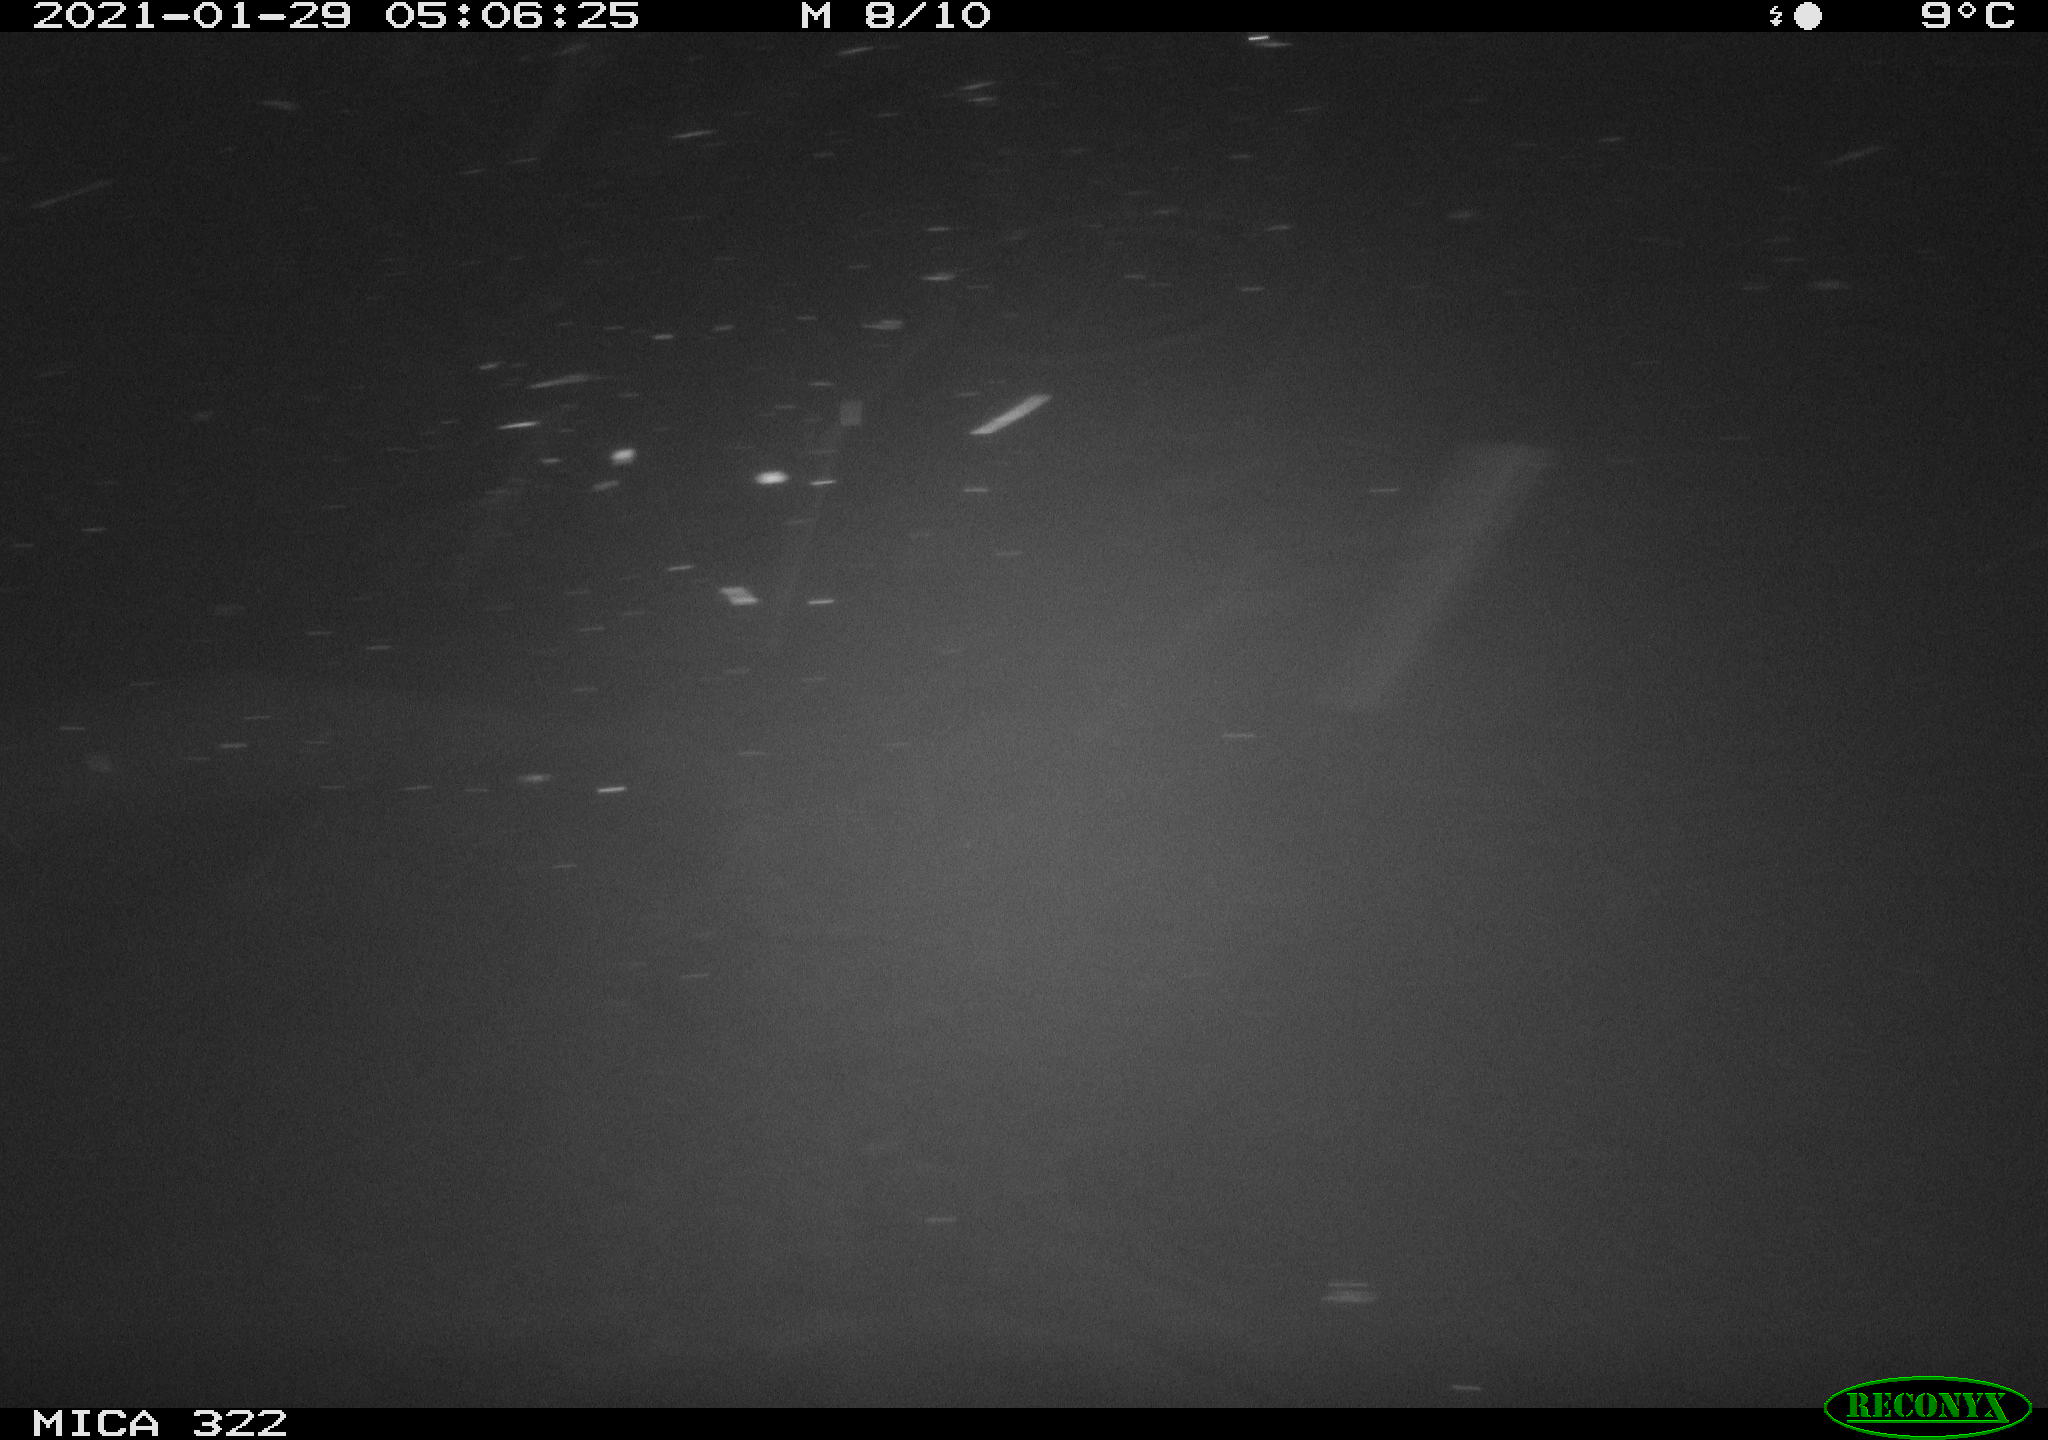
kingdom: Animalia
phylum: Chordata
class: Mammalia
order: Rodentia
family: Muridae
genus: Rattus
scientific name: Rattus norvegicus
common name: Brown rat
